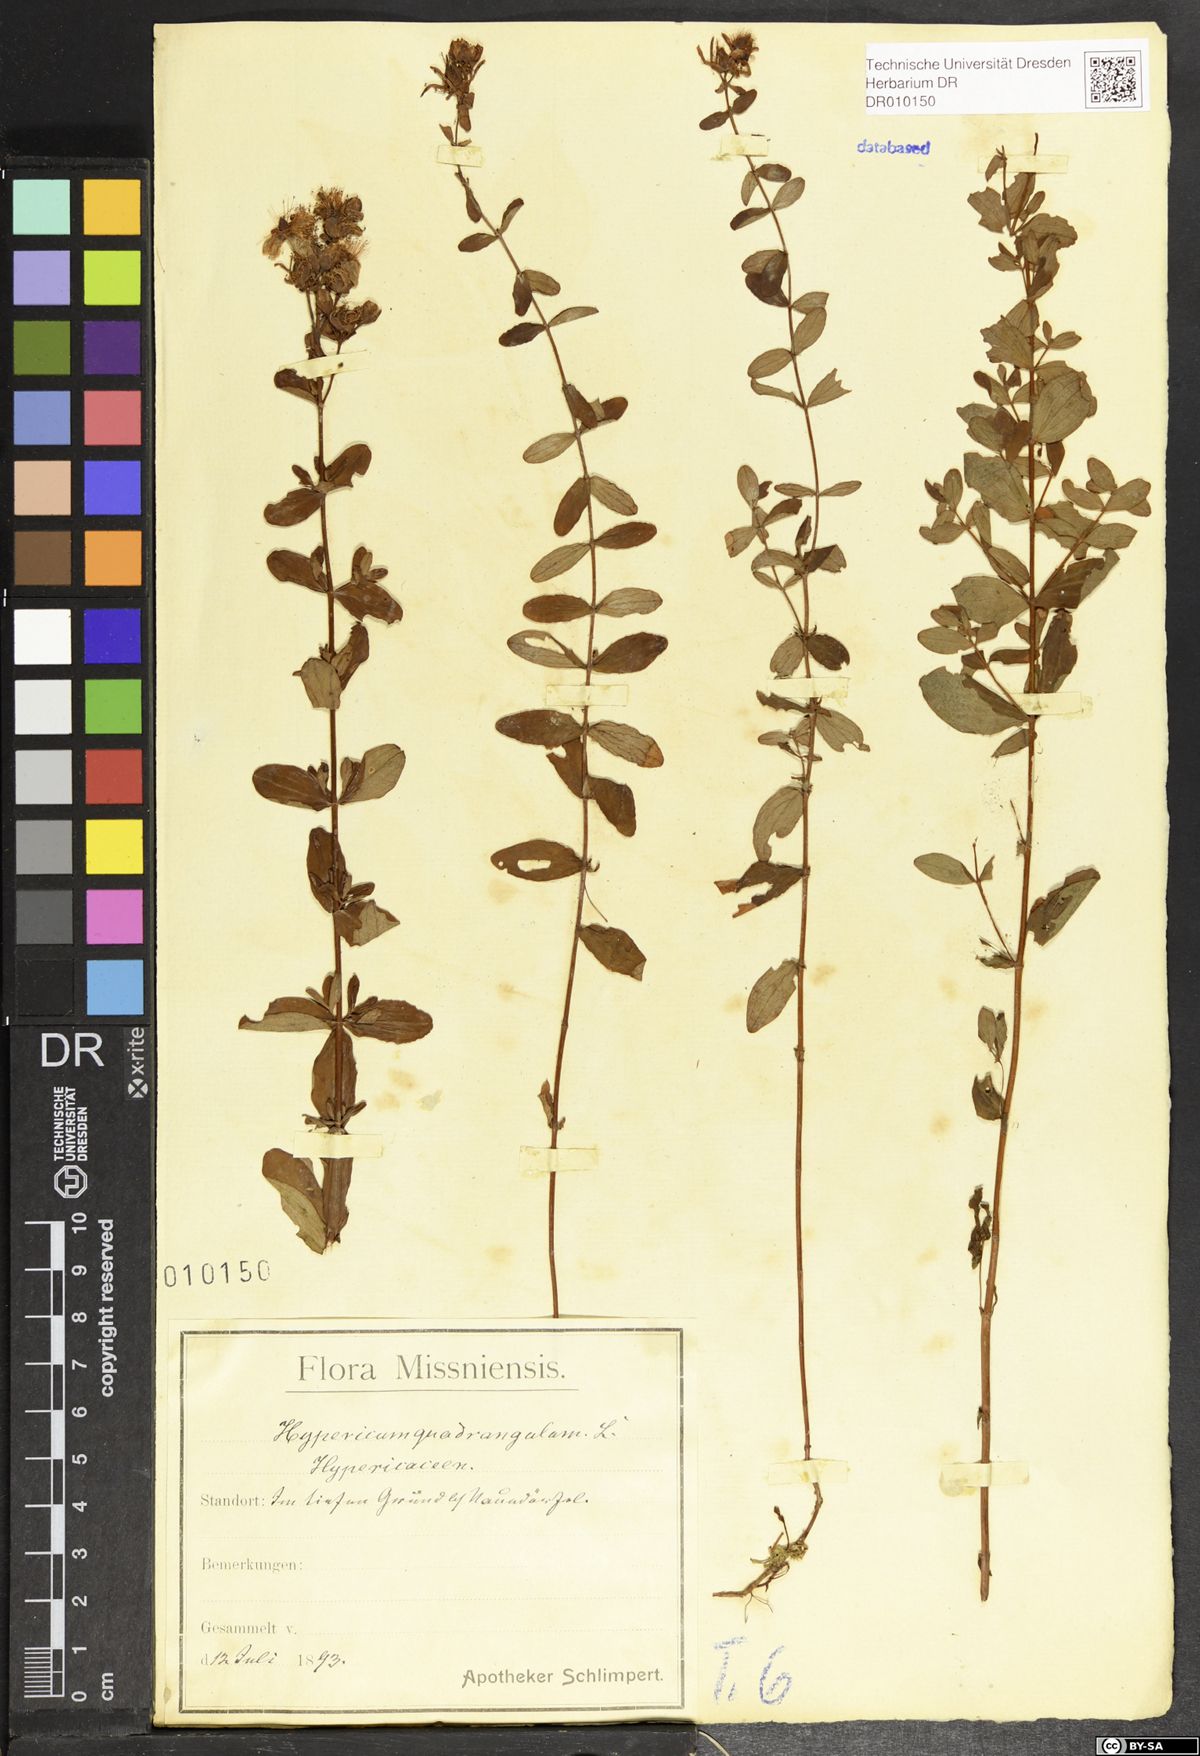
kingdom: Plantae
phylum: Tracheophyta
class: Magnoliopsida
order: Malpighiales
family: Hypericaceae
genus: Hypericum
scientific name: Hypericum maculatum
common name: Imperforate st. john's-wort
